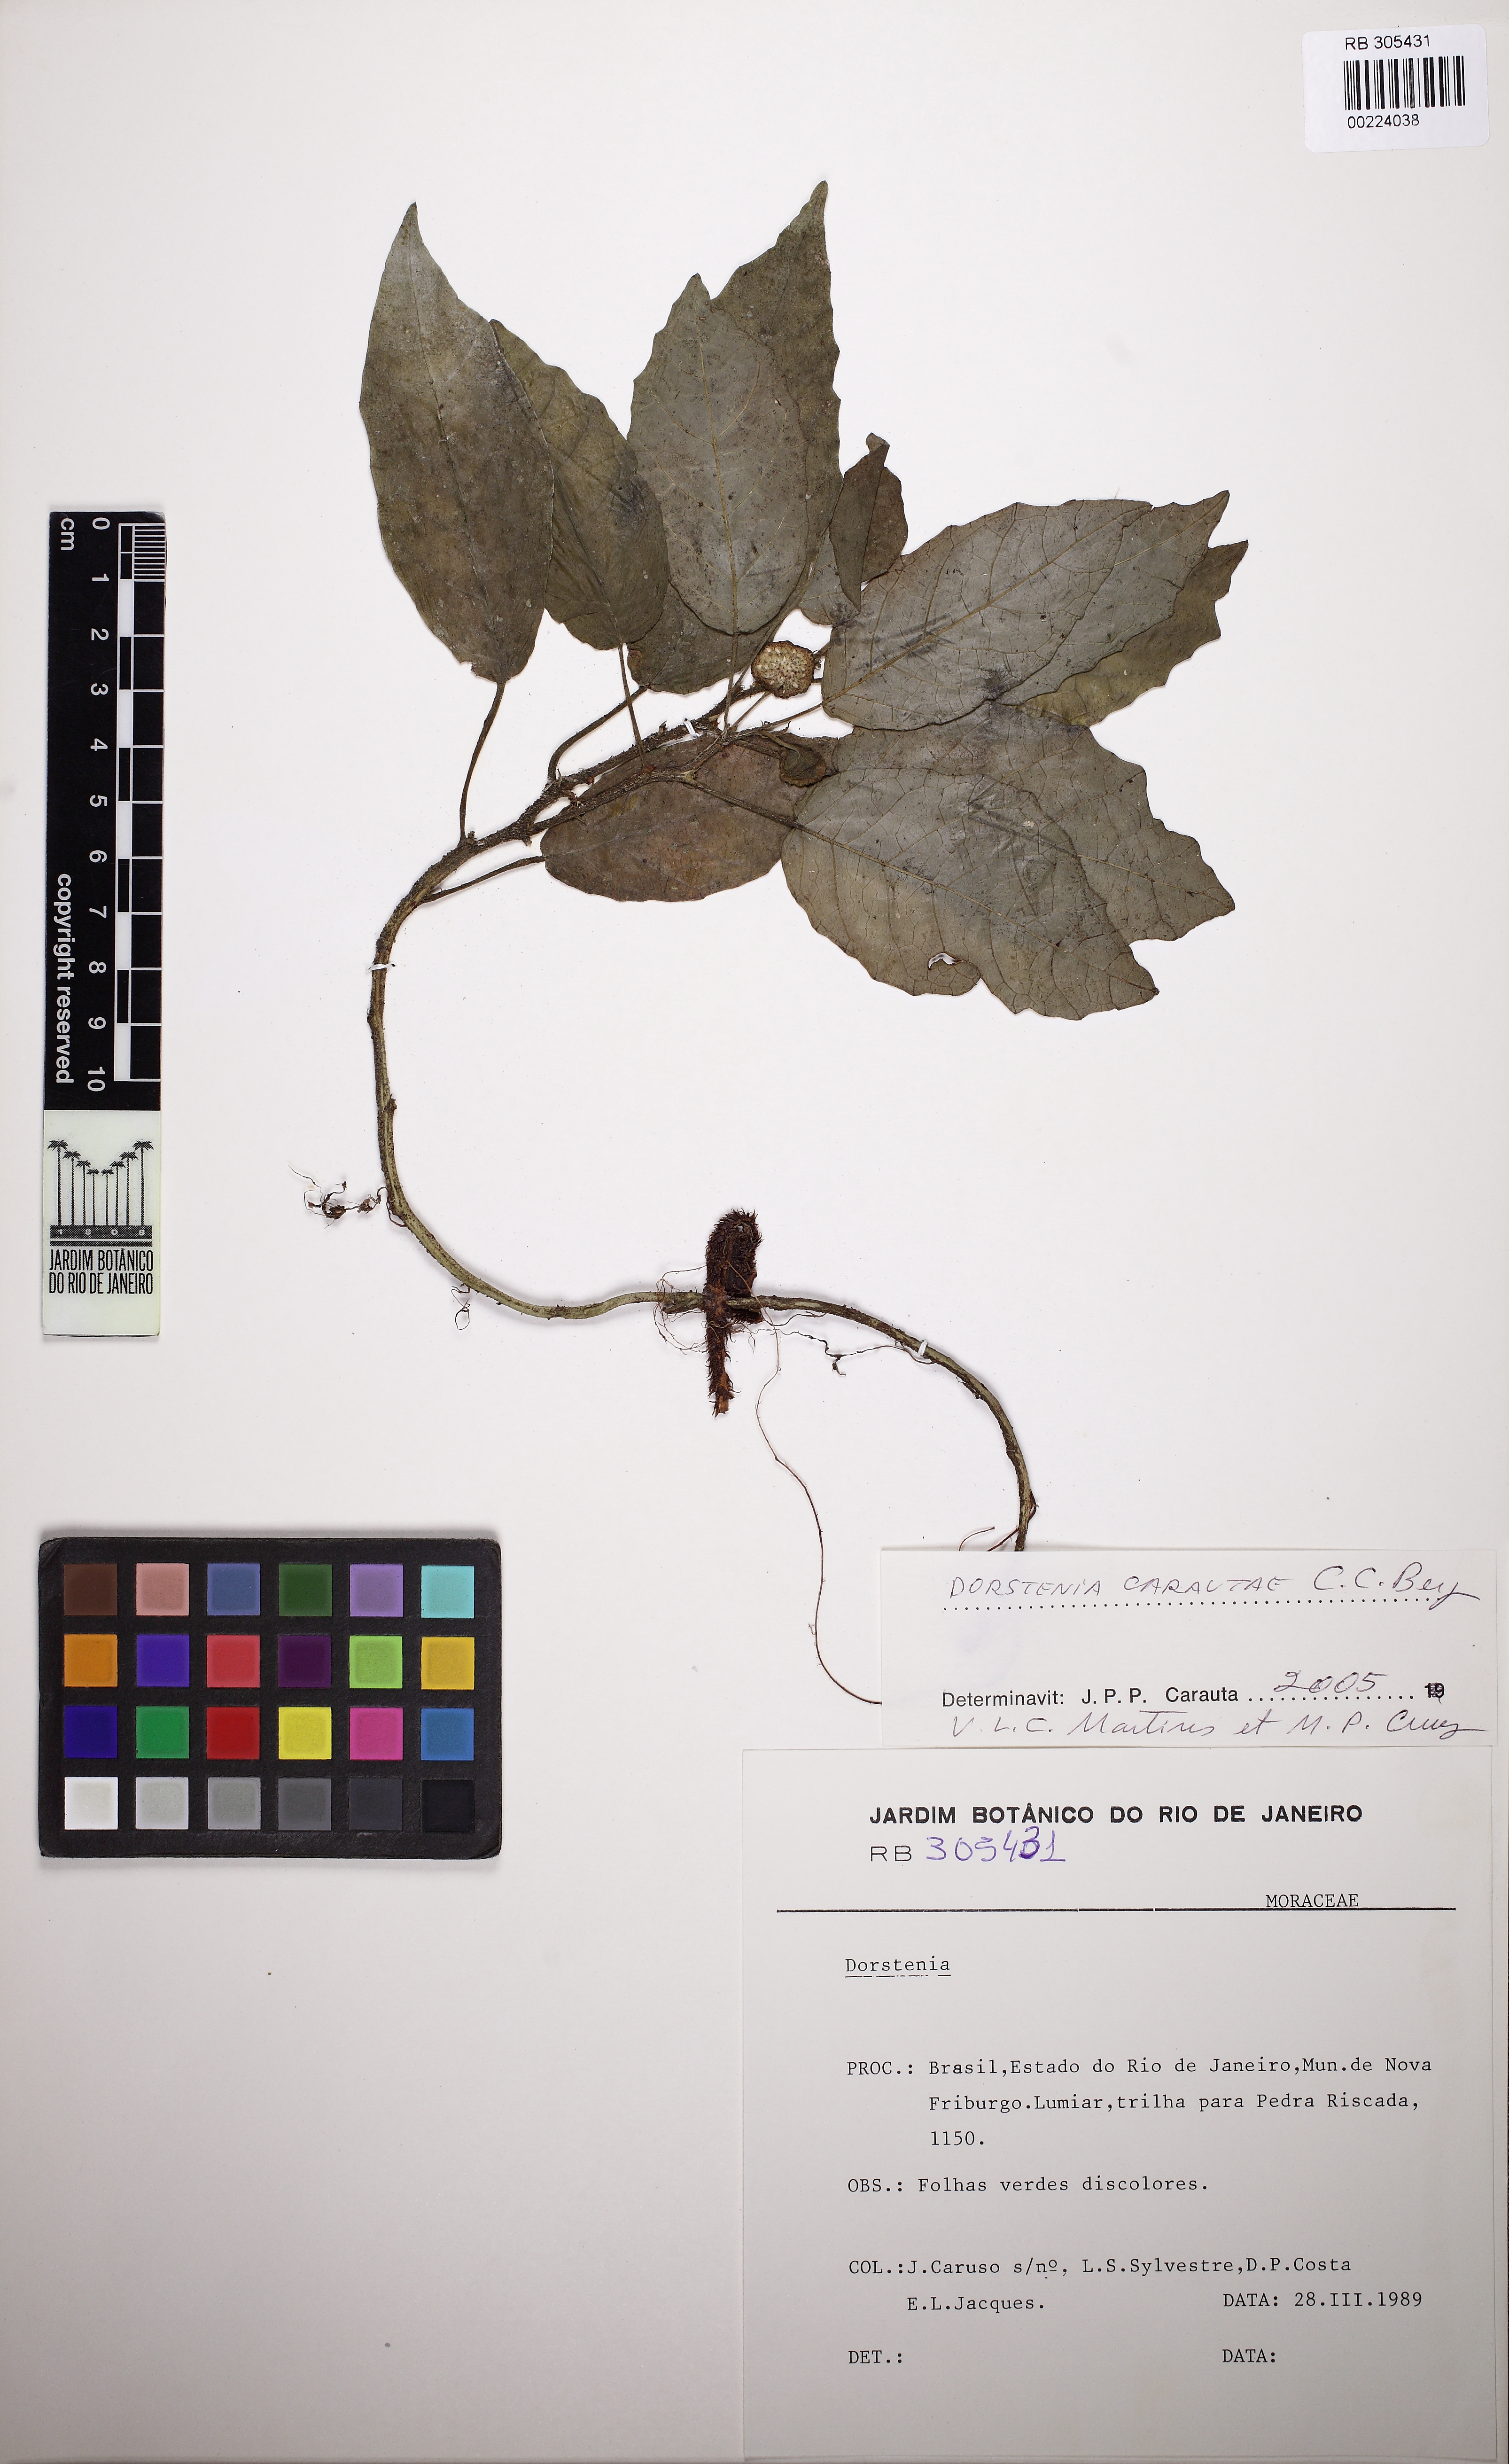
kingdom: Plantae
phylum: Tracheophyta
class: Magnoliopsida
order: Rosales
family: Moraceae
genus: Dorstenia
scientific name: Dorstenia carautae
